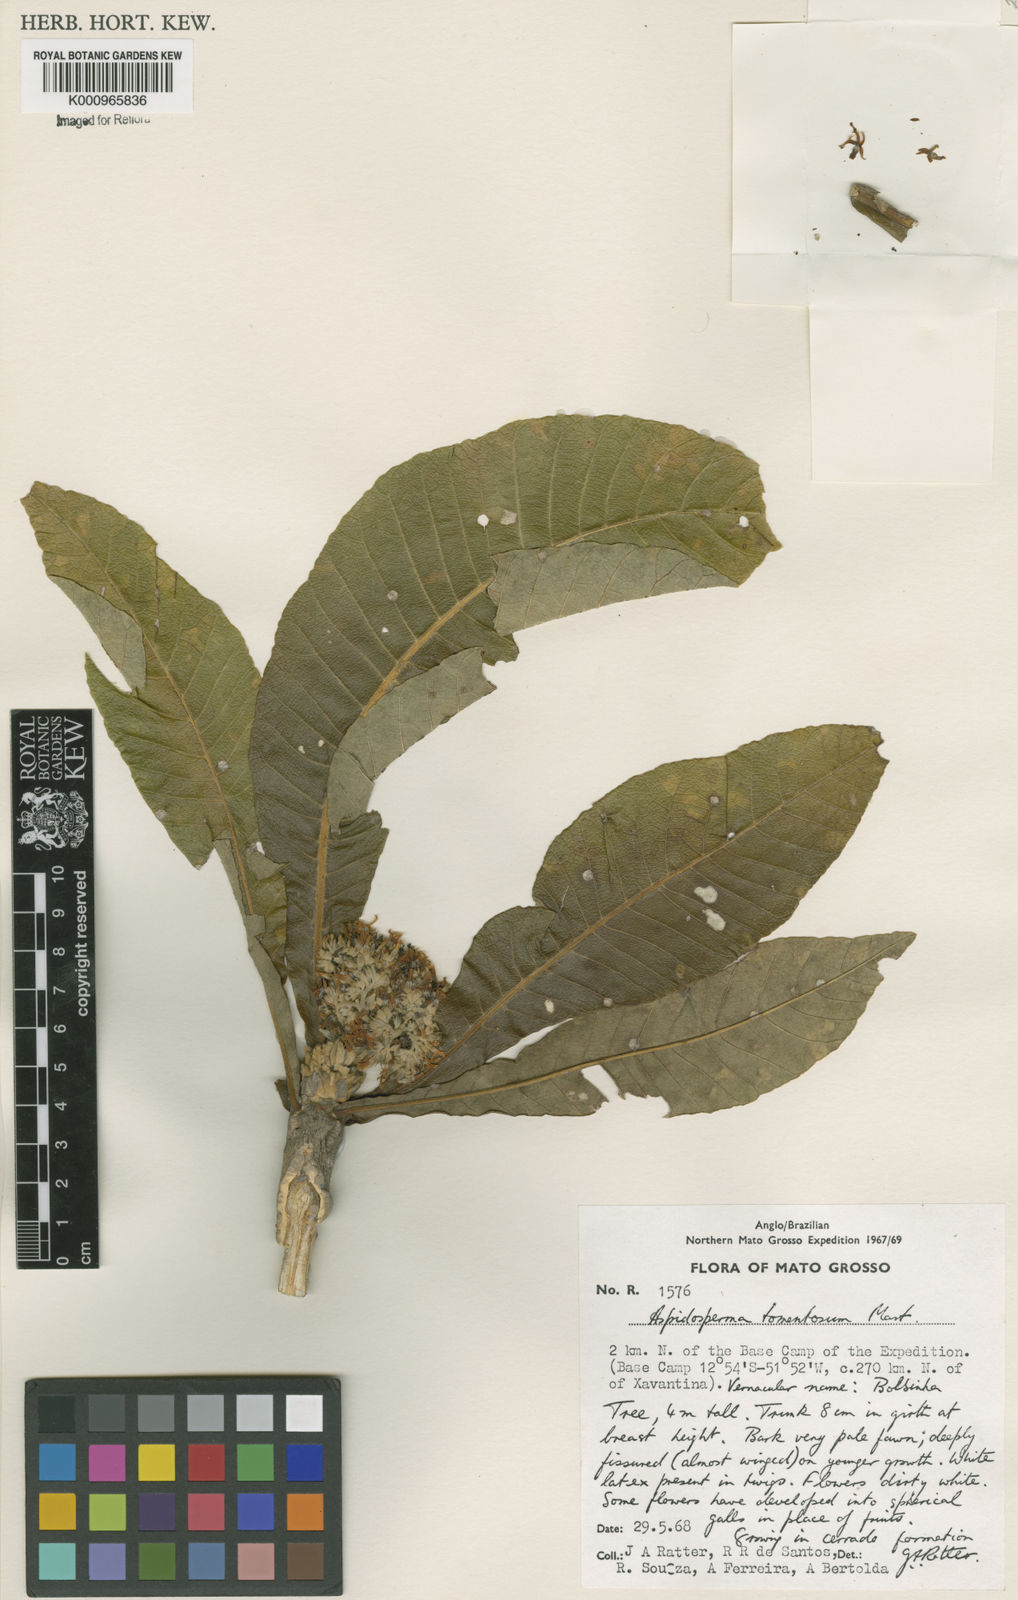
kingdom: Plantae
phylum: Tracheophyta
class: Magnoliopsida
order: Gentianales
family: Apocynaceae
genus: Aspidosperma
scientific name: Aspidosperma tomentosum
